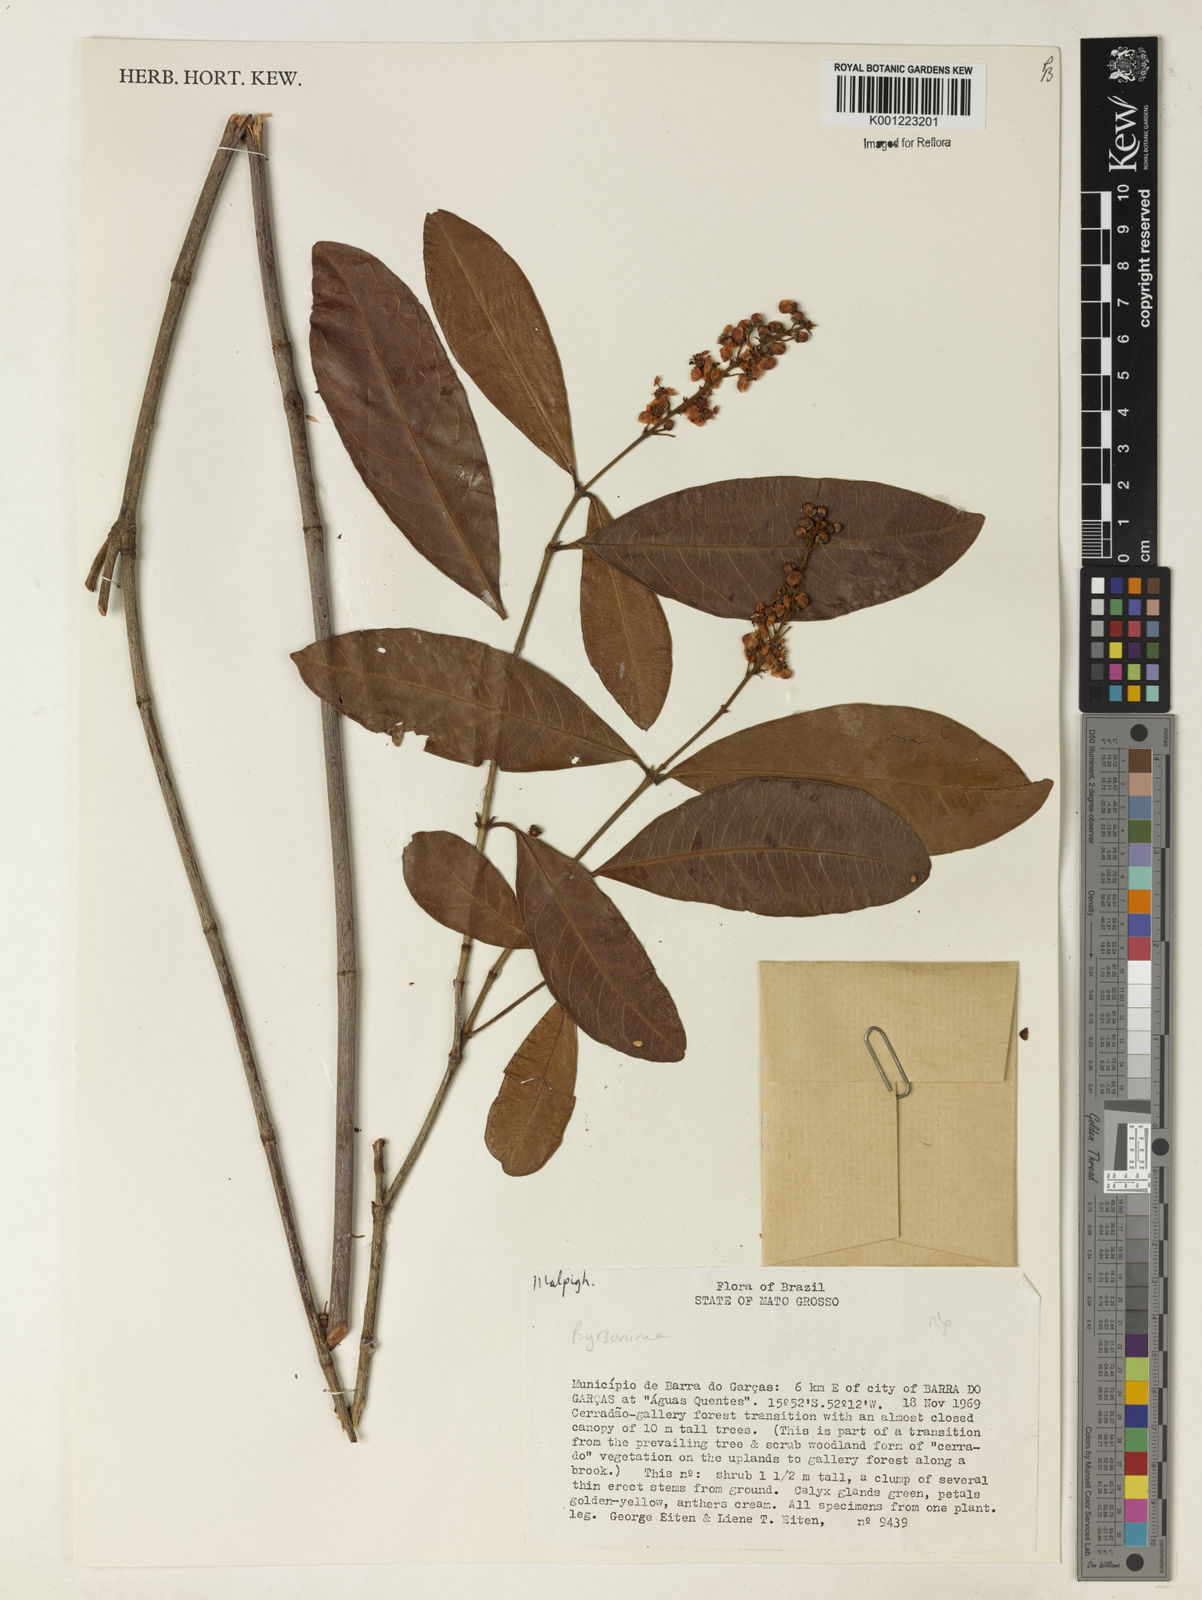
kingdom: Plantae
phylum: Tracheophyta
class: Magnoliopsida
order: Malpighiales
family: Malpighiaceae
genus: Byrsonima
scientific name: Byrsonima
